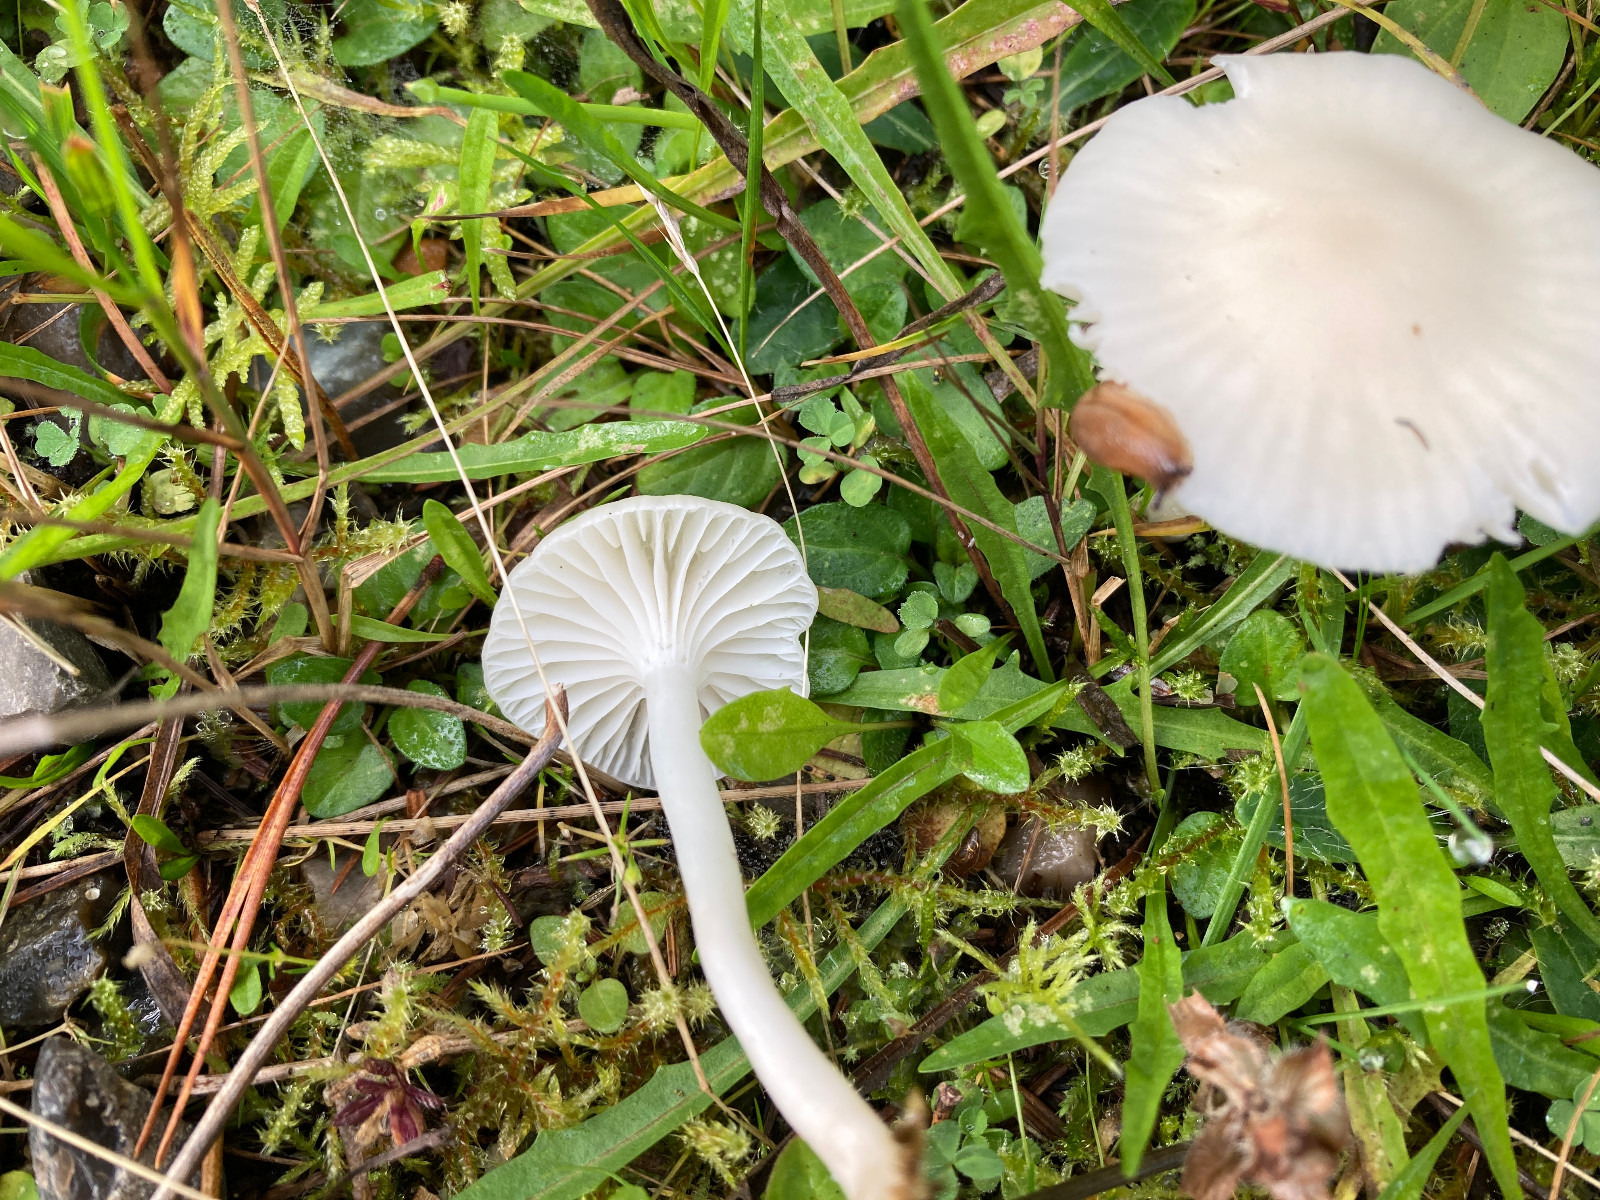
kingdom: Fungi
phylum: Basidiomycota
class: Agaricomycetes
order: Agaricales
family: Hygrophoraceae
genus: Cuphophyllus
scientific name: Cuphophyllus
